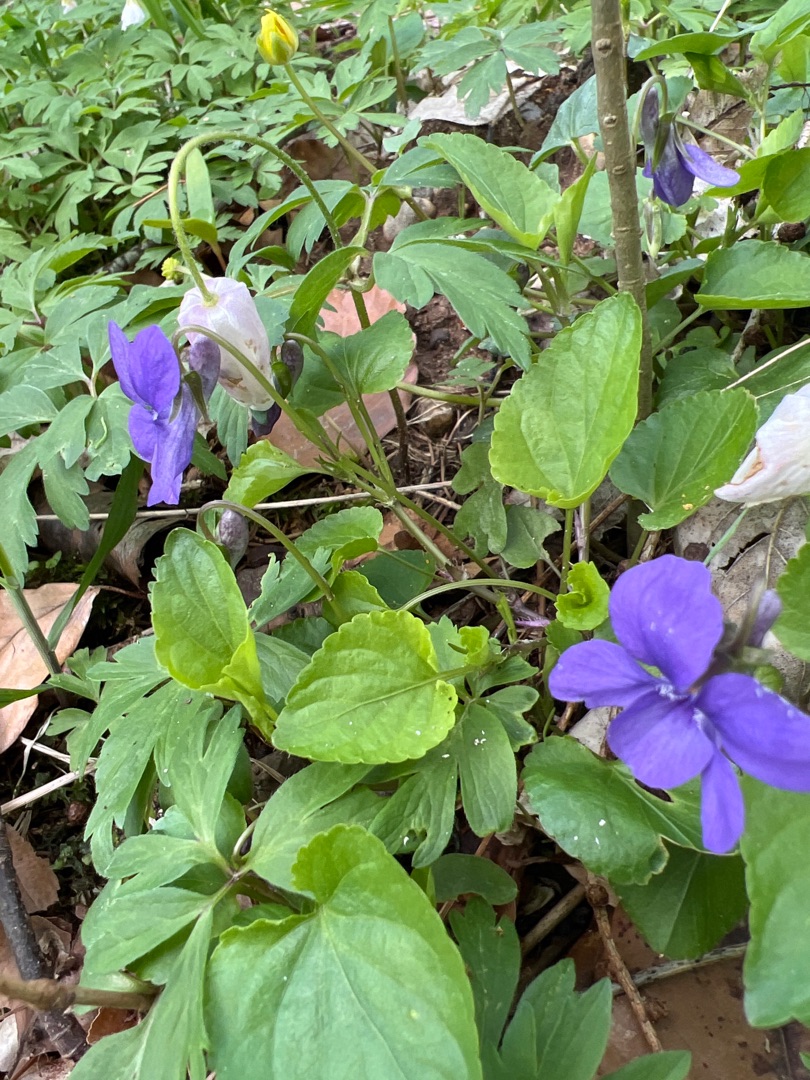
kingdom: Plantae
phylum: Tracheophyta
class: Magnoliopsida
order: Malpighiales
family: Violaceae
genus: Viola
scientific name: Viola reichenbachiana
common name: Skov-viol
